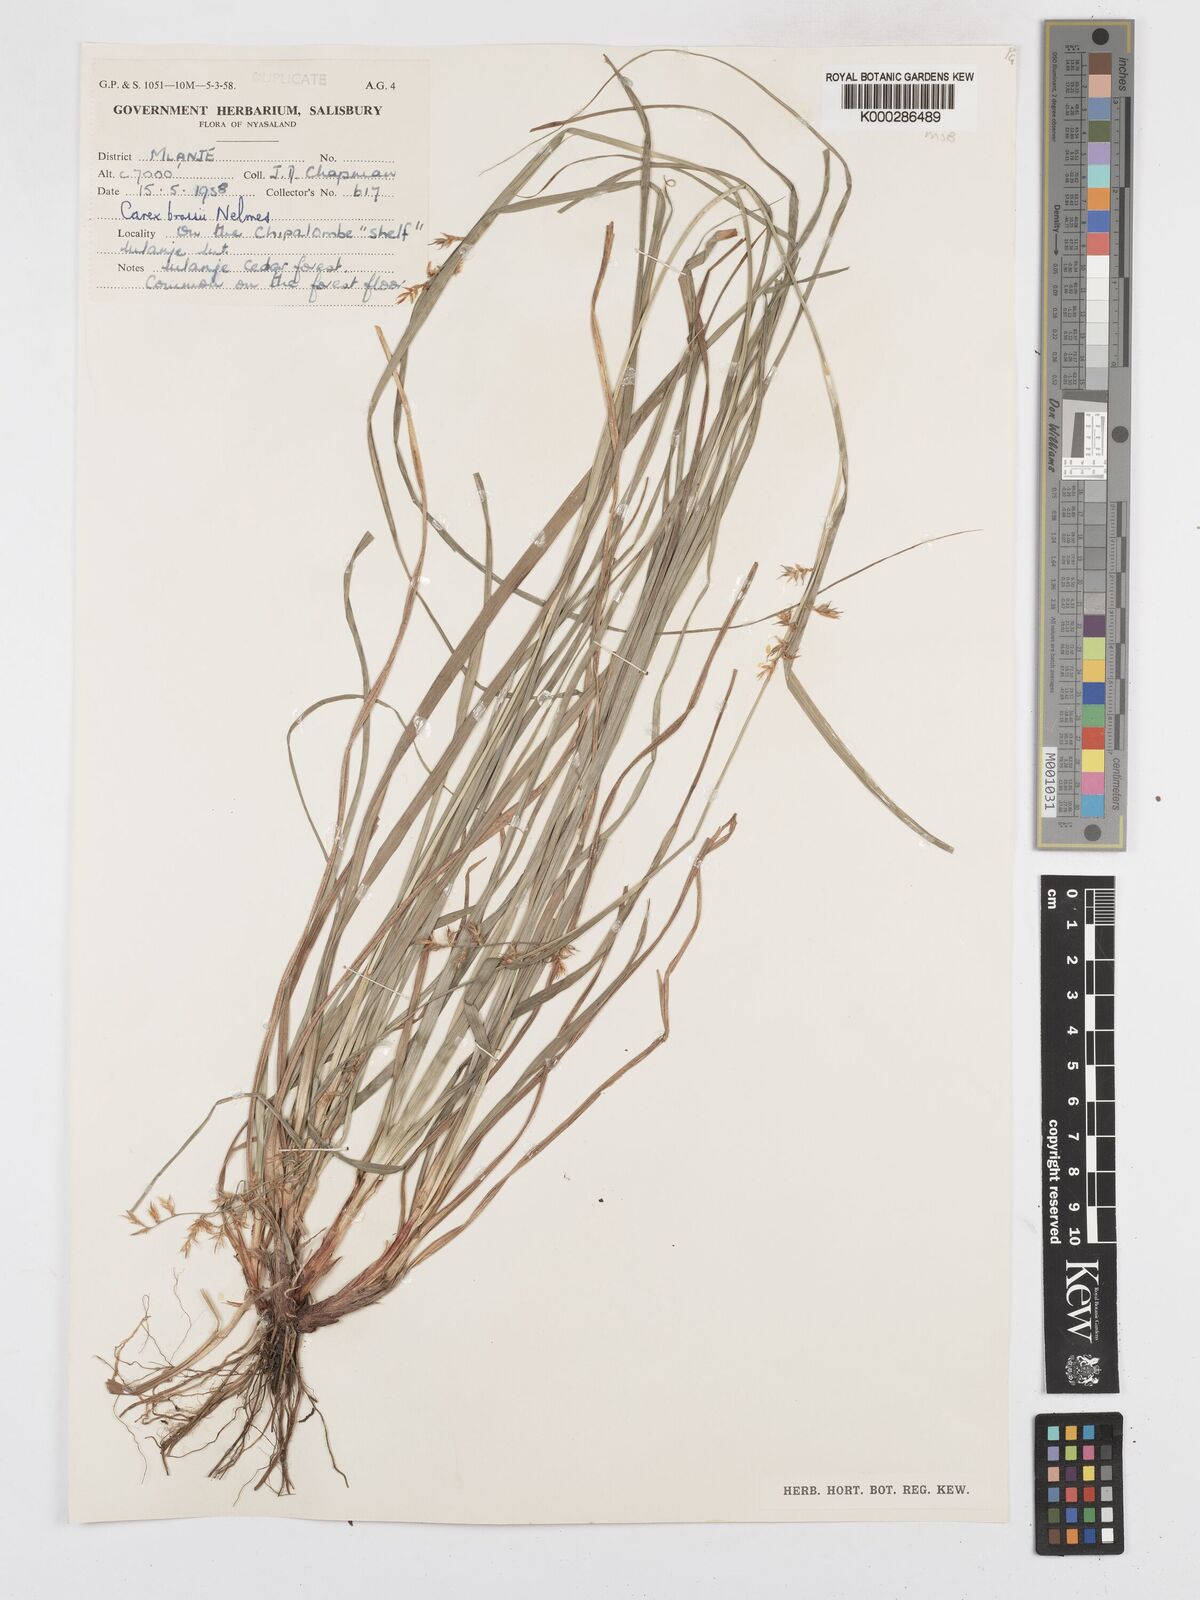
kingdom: Plantae
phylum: Tracheophyta
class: Liliopsida
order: Poales
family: Cyperaceae
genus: Carex
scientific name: Carex chlorosaccus
